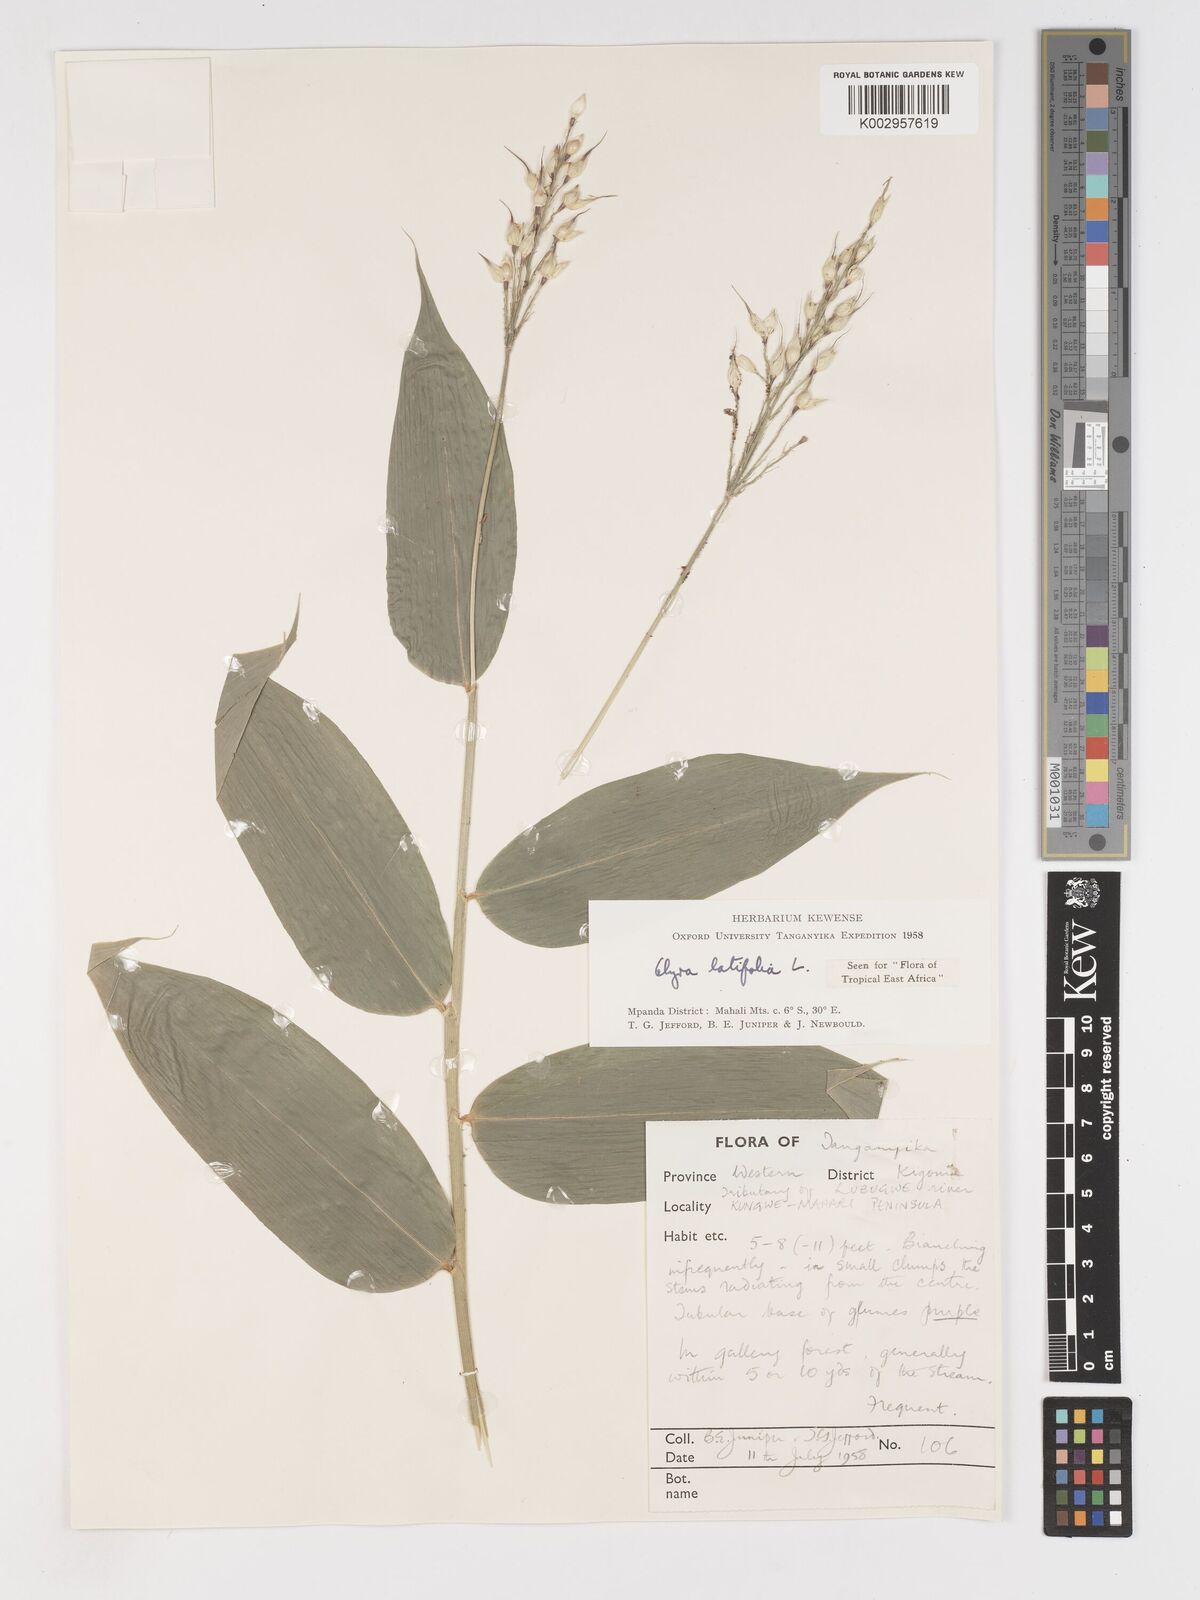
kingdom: Plantae
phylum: Tracheophyta
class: Liliopsida
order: Poales
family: Poaceae
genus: Olyra
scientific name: Olyra latifolia
